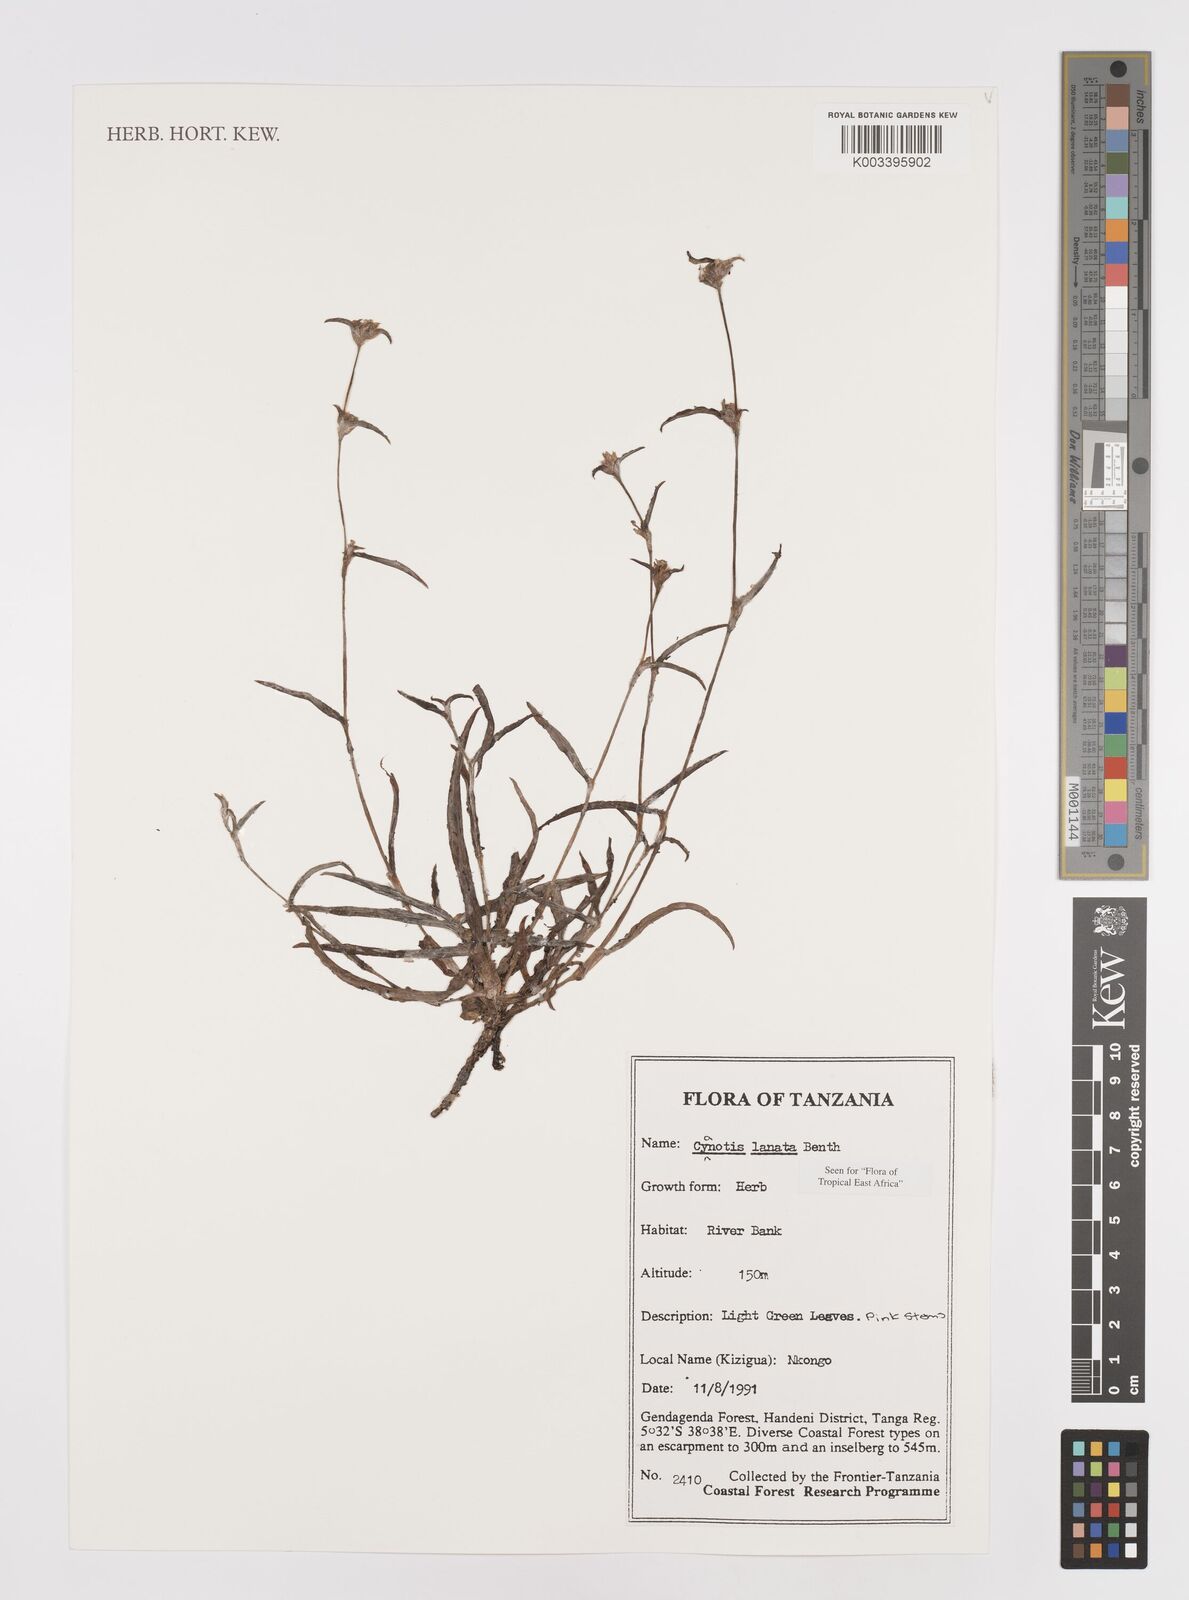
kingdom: Plantae
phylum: Tracheophyta
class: Liliopsida
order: Commelinales
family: Commelinaceae
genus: Cyanotis
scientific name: Cyanotis lanata
